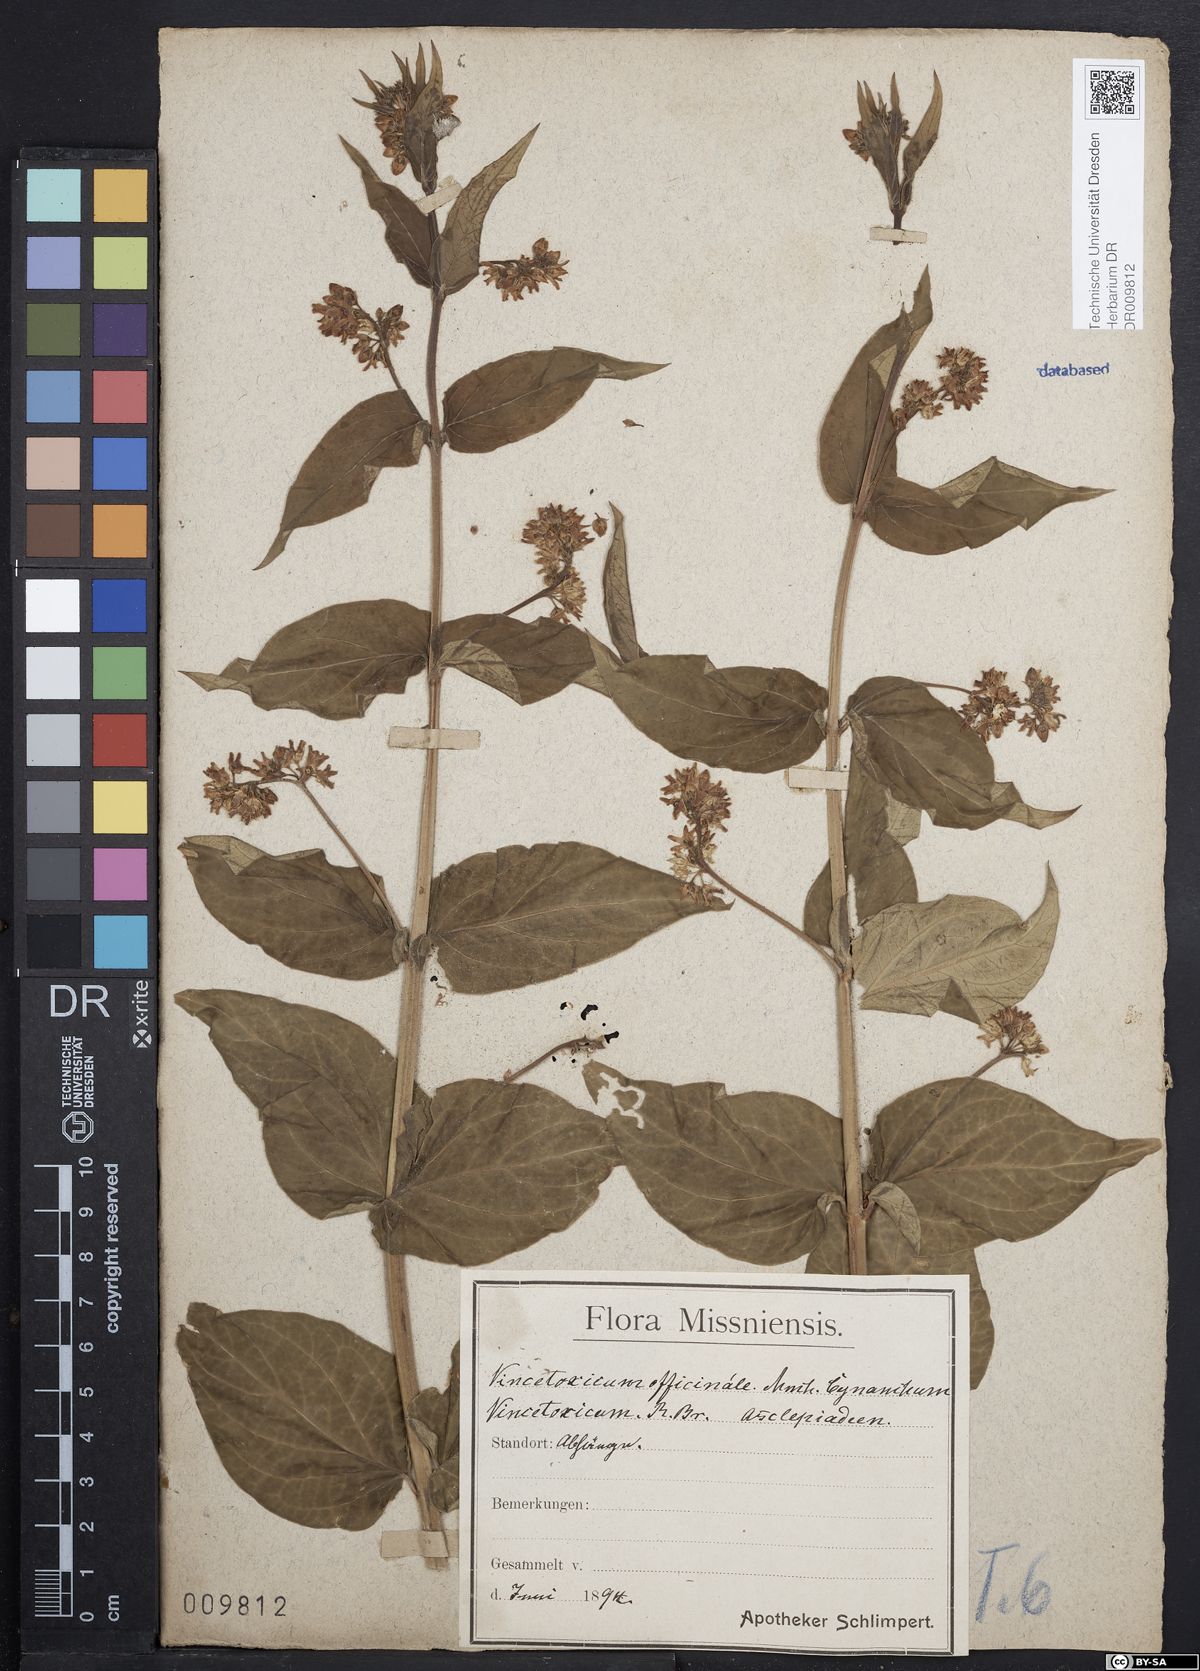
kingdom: Plantae
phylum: Tracheophyta
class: Magnoliopsida
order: Gentianales
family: Apocynaceae
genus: Vincetoxicum
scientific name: Vincetoxicum hirundinaria
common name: White swallowwort
